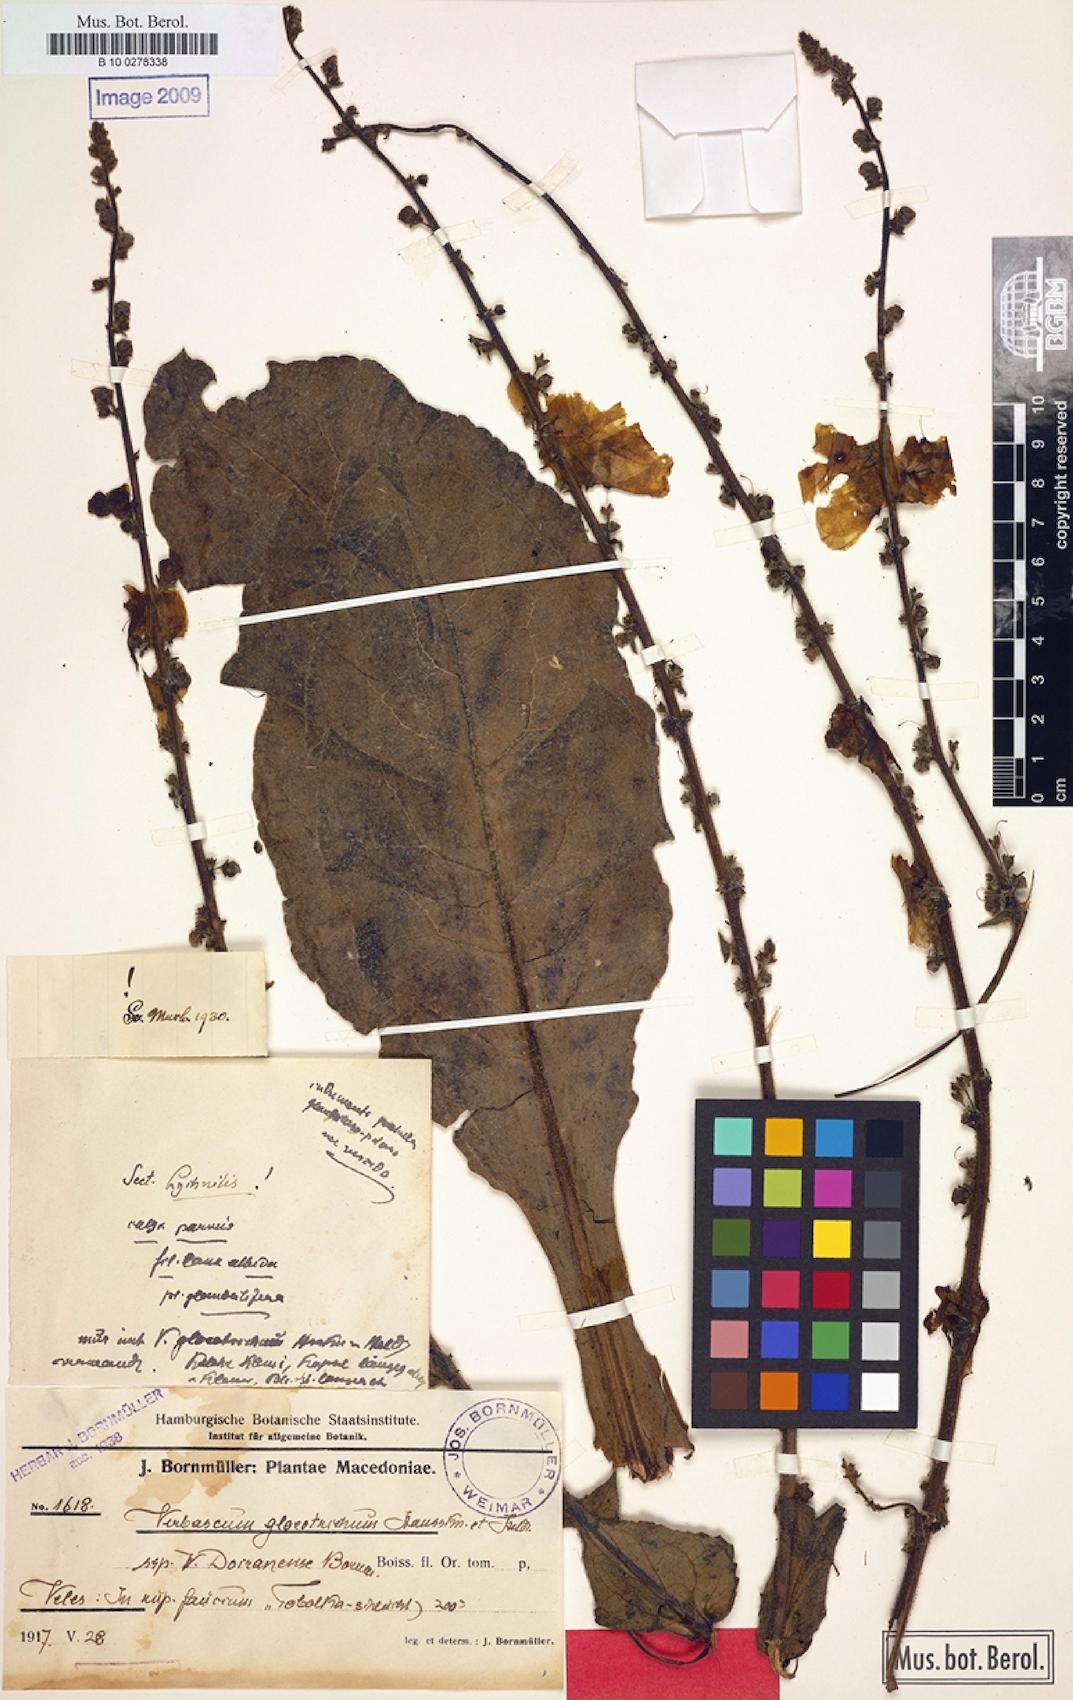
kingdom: Plantae
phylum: Tracheophyta
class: Magnoliopsida
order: Lamiales
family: Scrophulariaceae
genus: Verbascum
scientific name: Verbascum gloeotrichum
